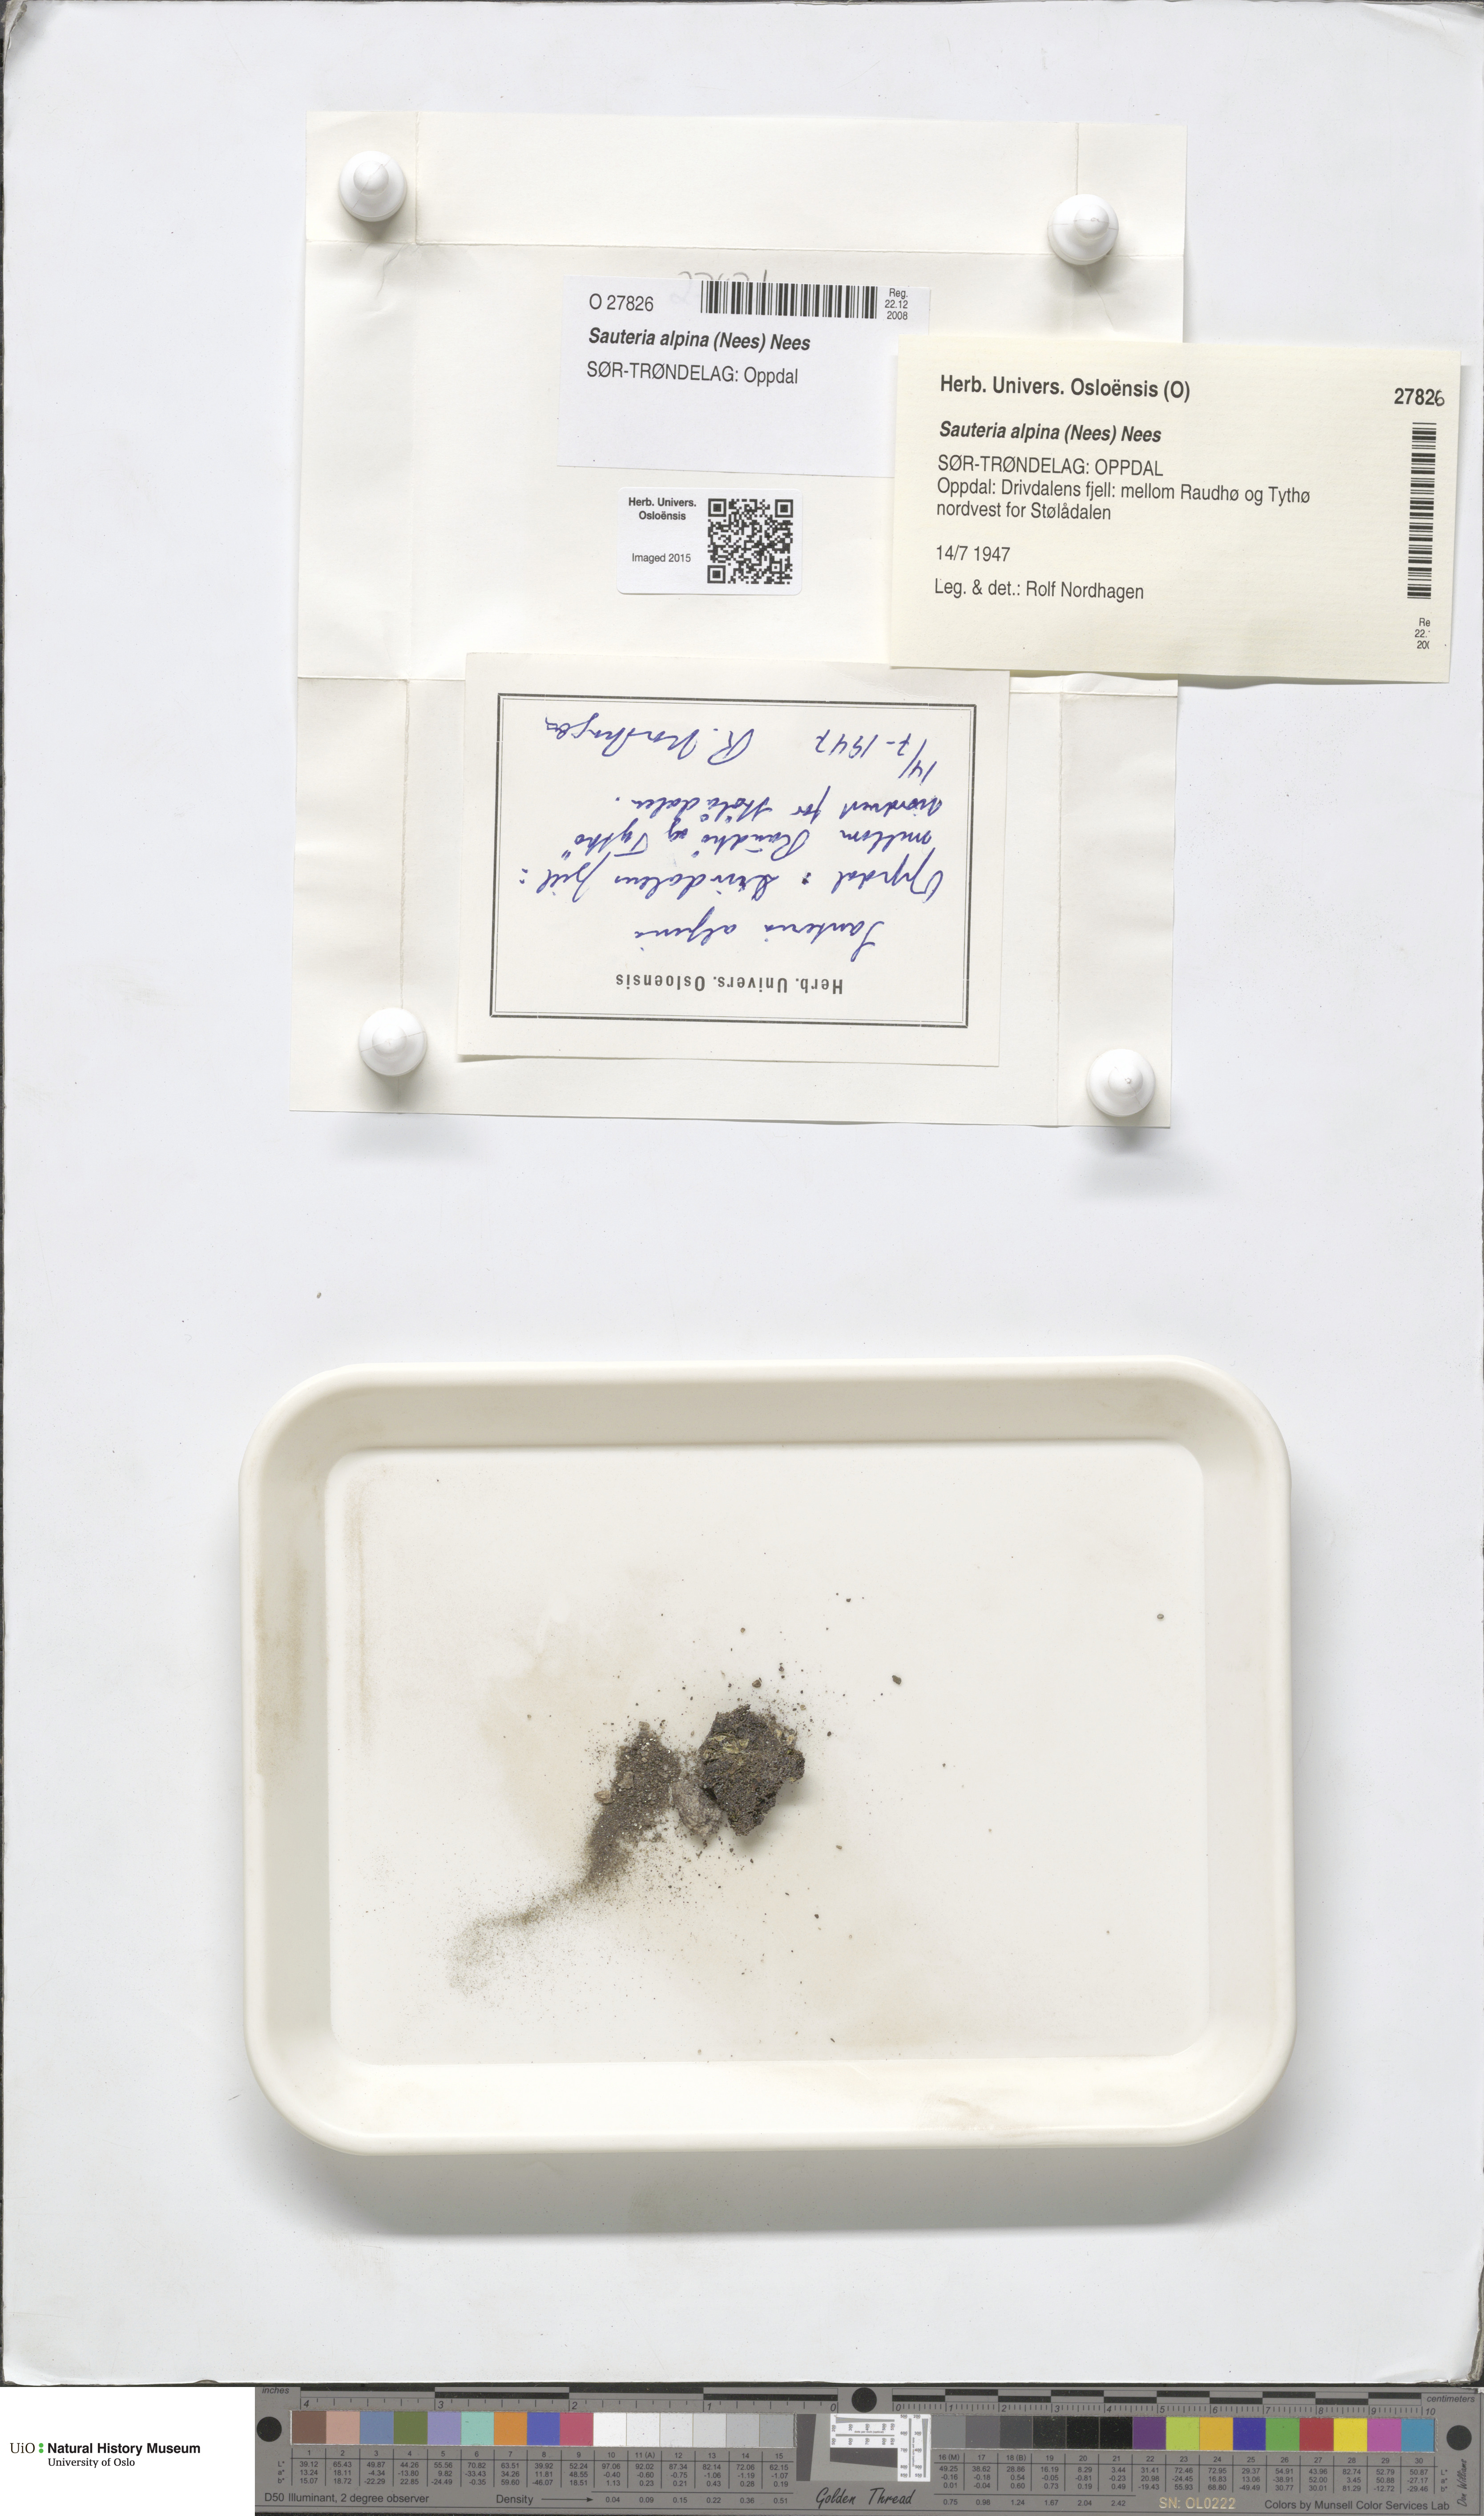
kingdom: Plantae
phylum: Marchantiophyta
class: Marchantiopsida
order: Marchantiales
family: Cleveaceae
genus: Sauteria
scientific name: Sauteria alpina
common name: Snow lungwort
